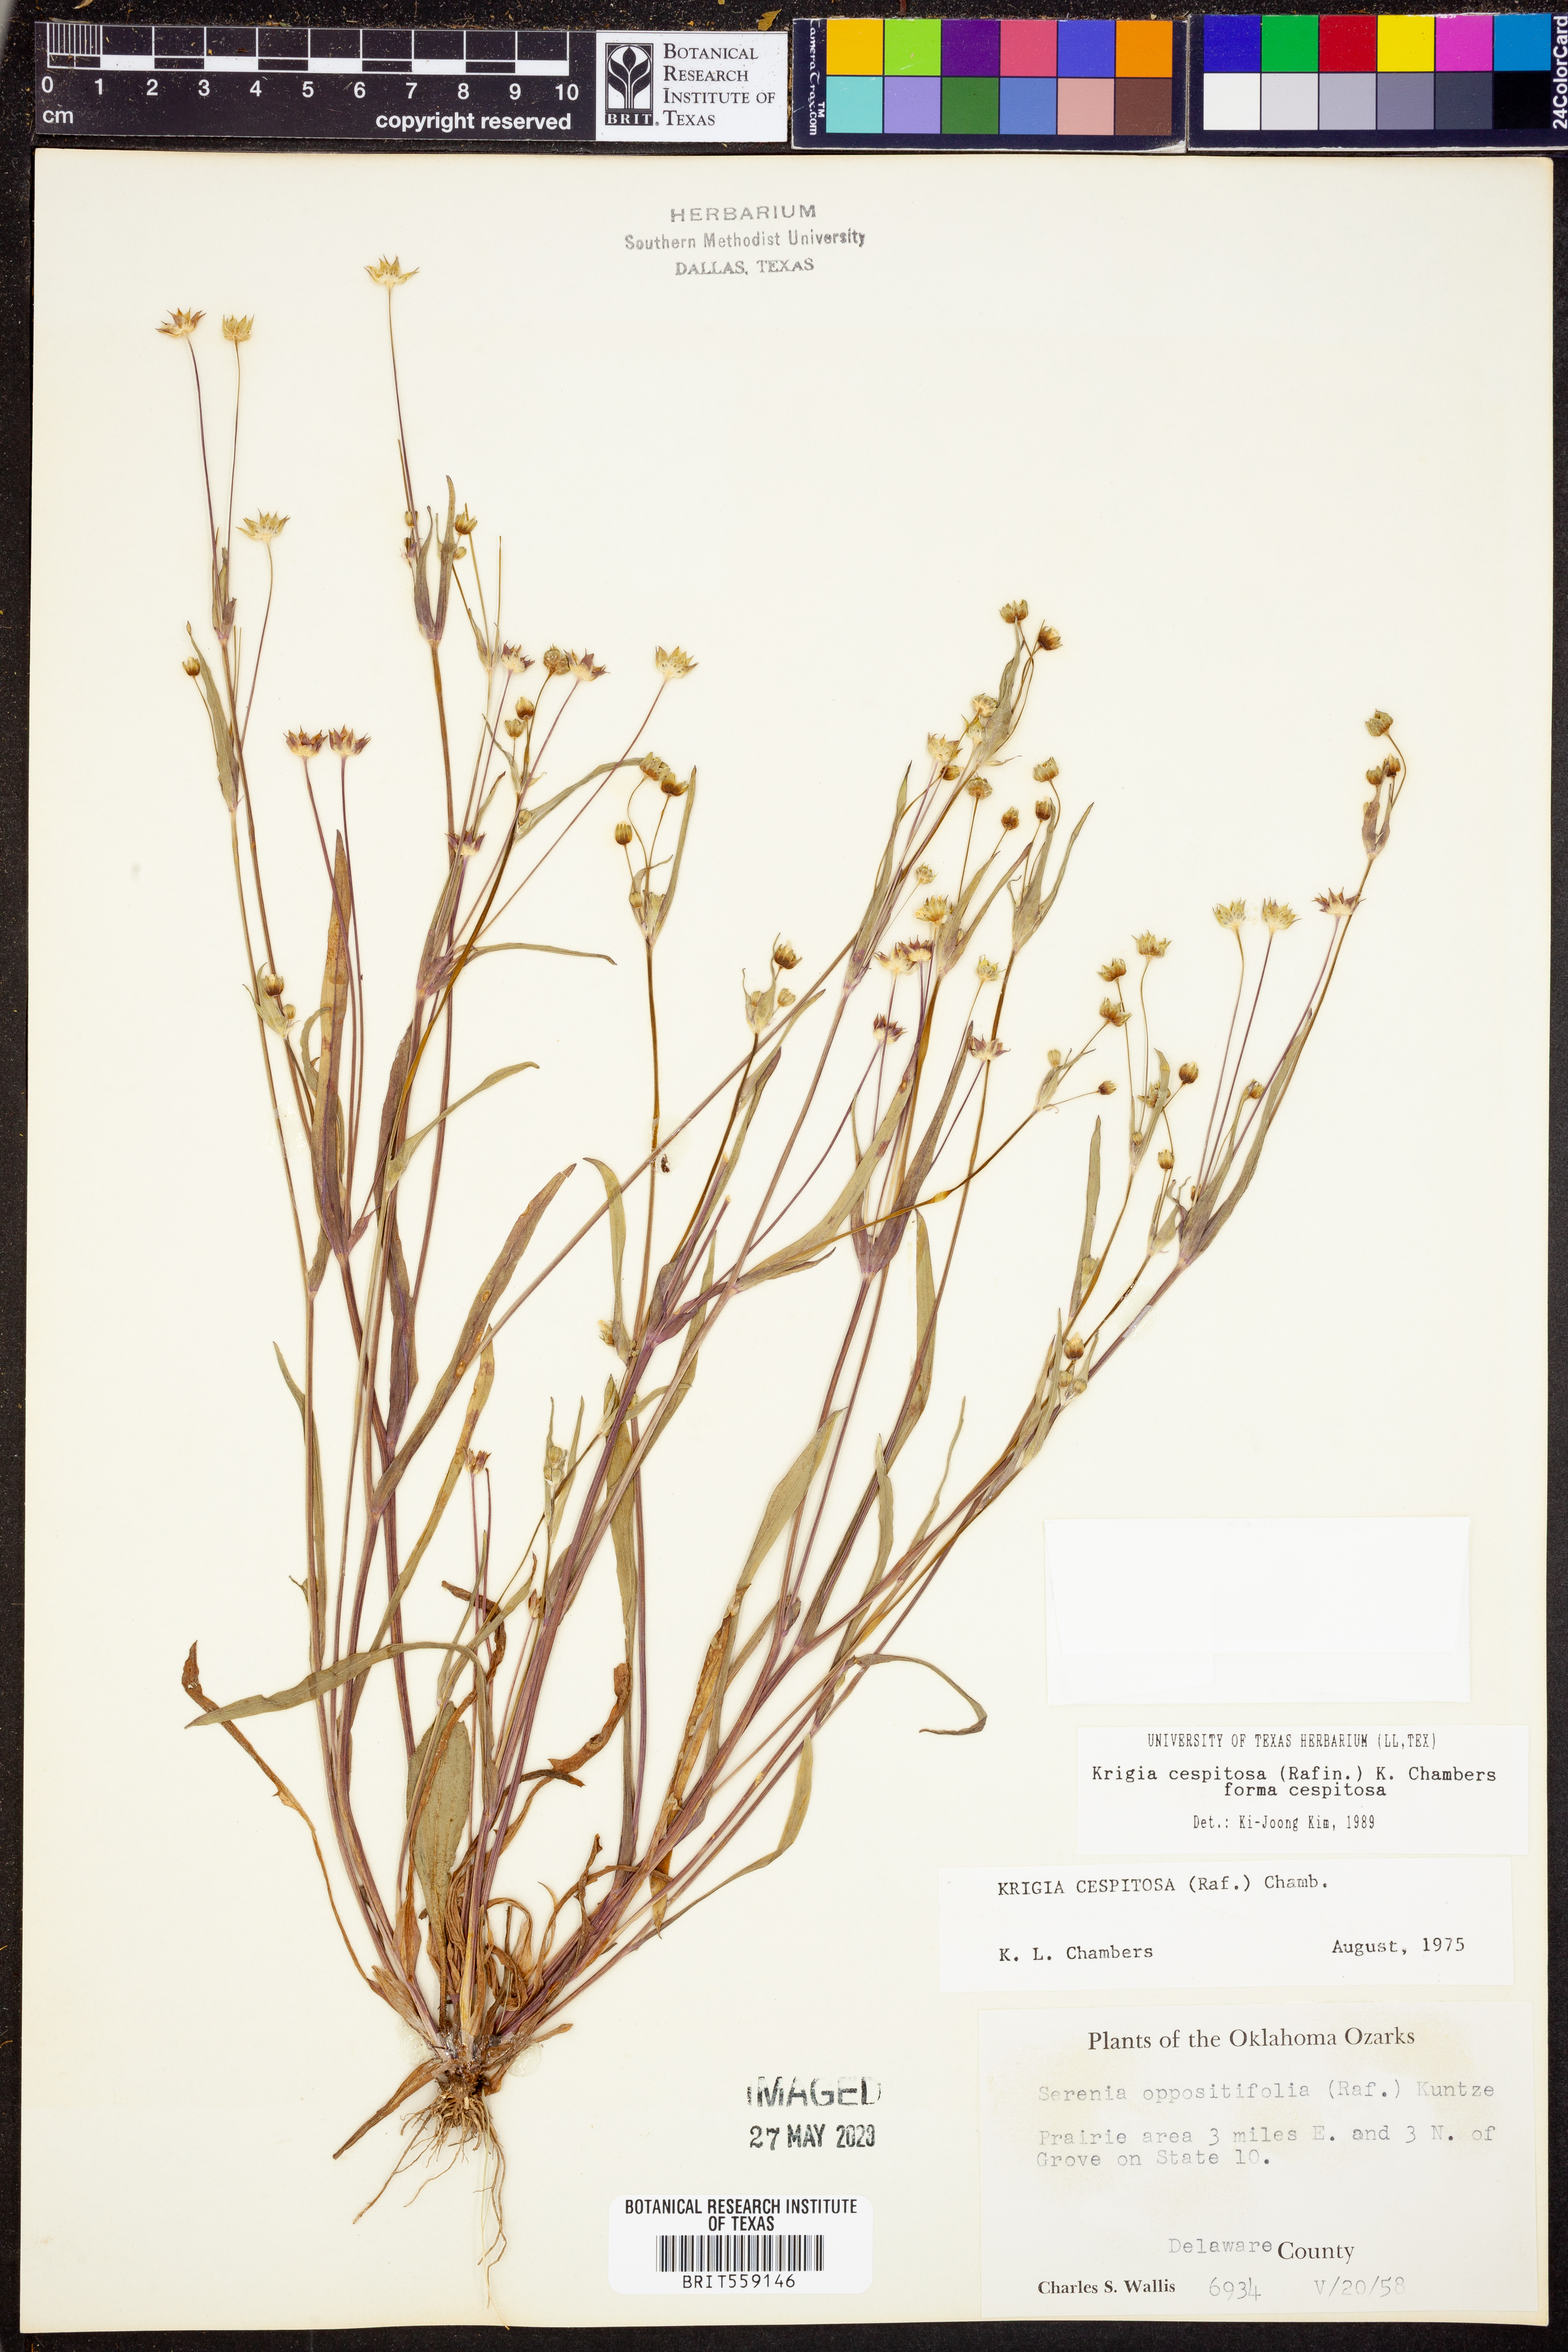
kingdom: Plantae
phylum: Tracheophyta
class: Magnoliopsida
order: Asterales
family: Asteraceae
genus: Krigia
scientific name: Krigia cespitosa
